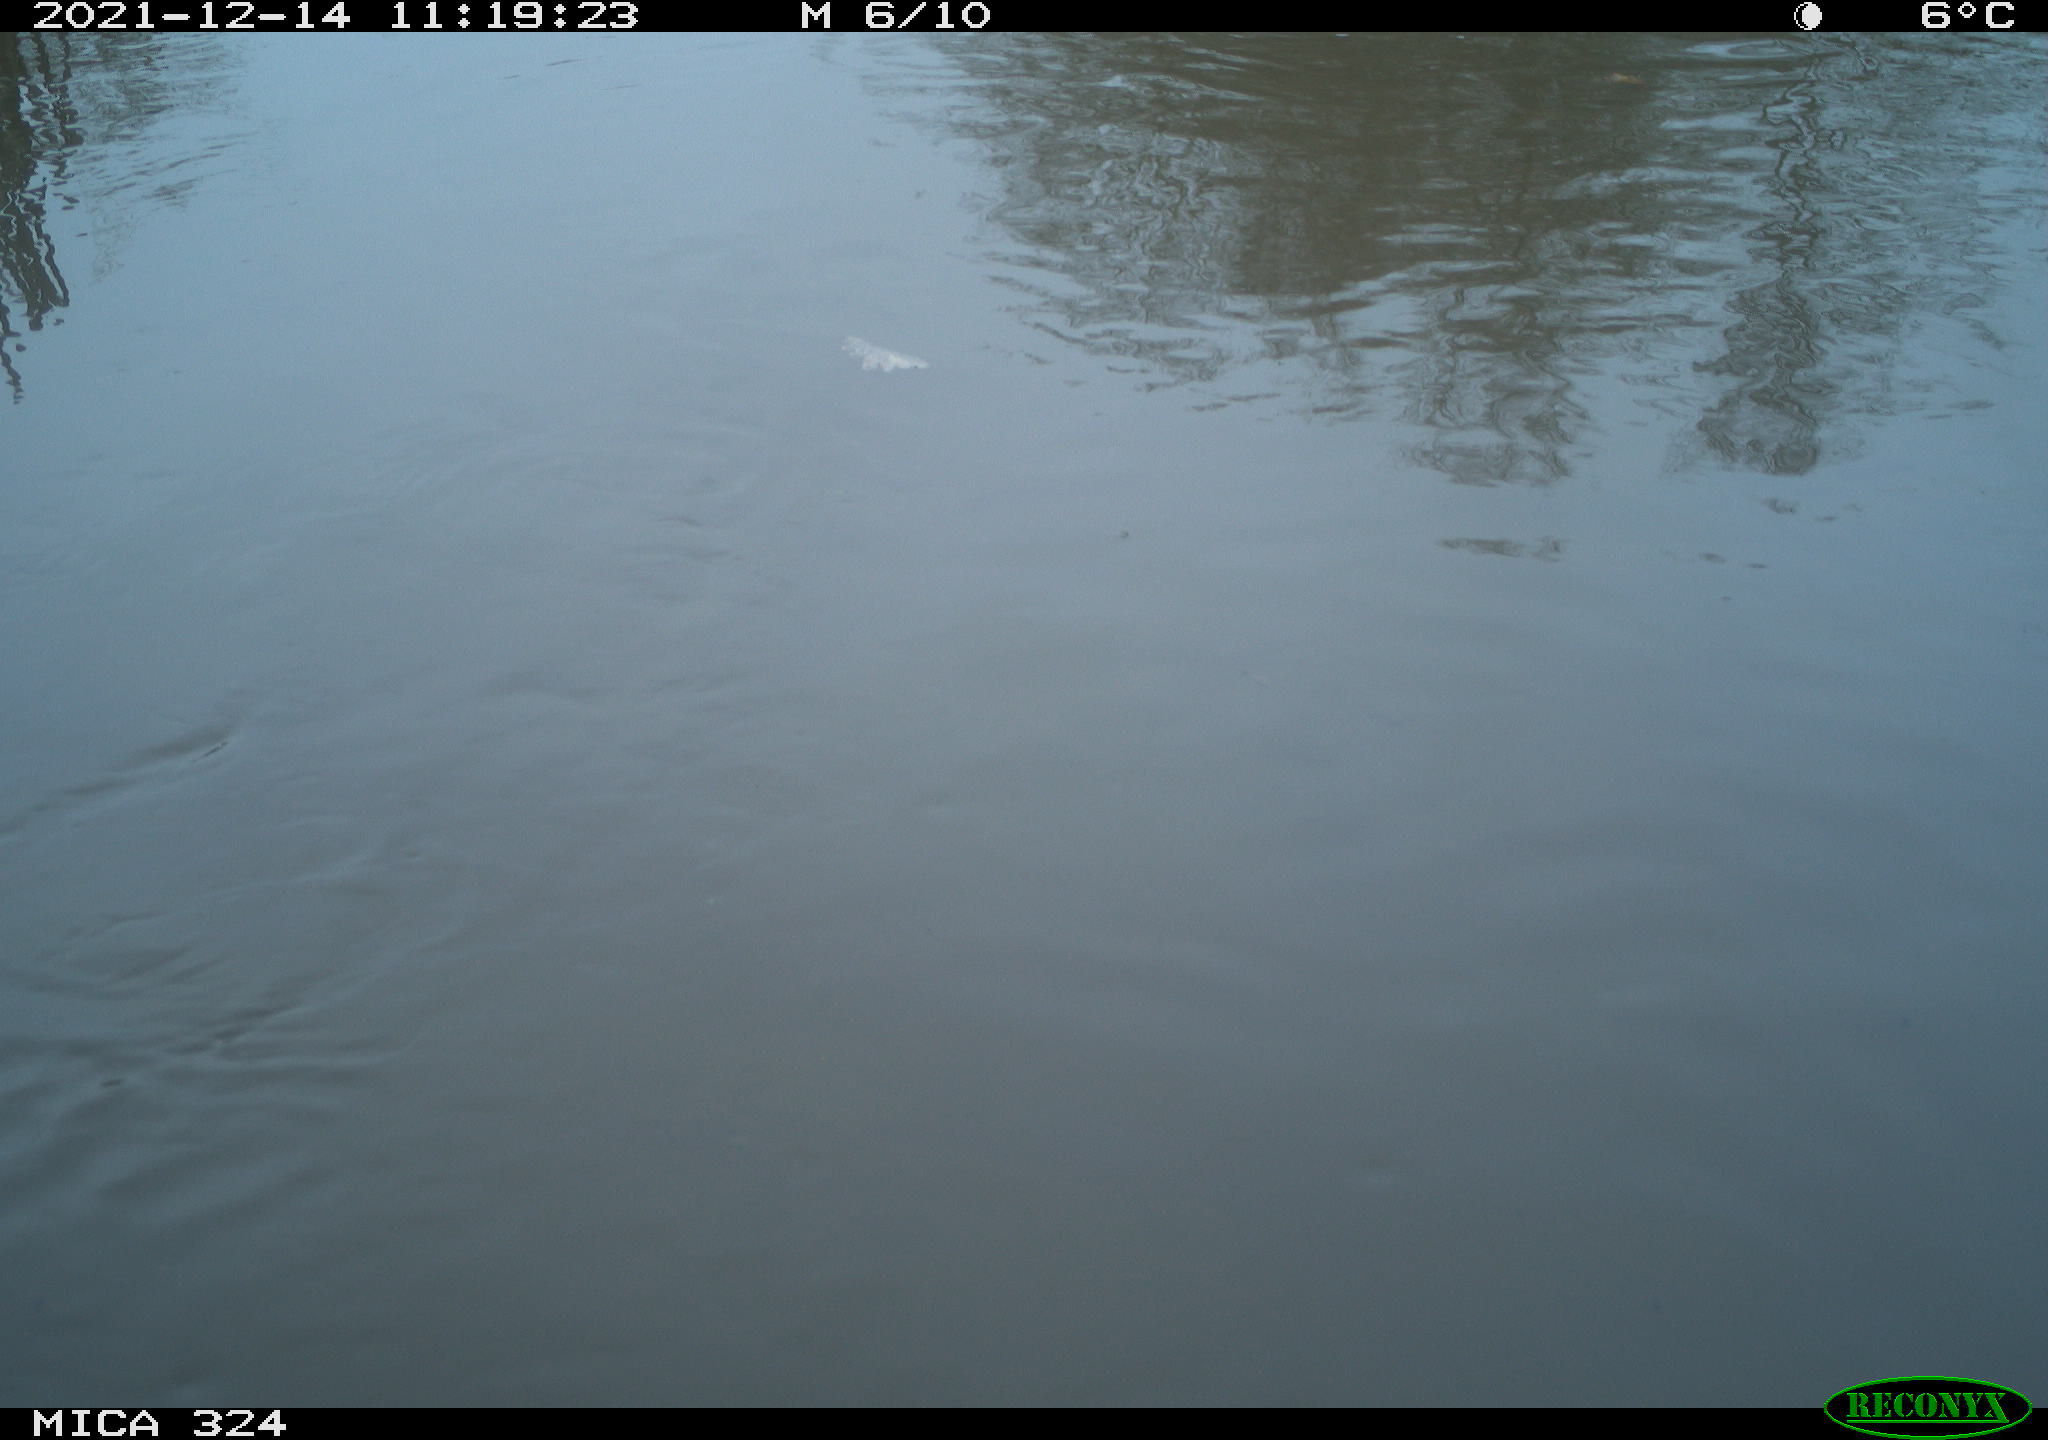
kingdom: Animalia
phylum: Chordata
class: Mammalia
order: Rodentia
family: Cricetidae
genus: Ondatra
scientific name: Ondatra zibethicus
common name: Muskrat
